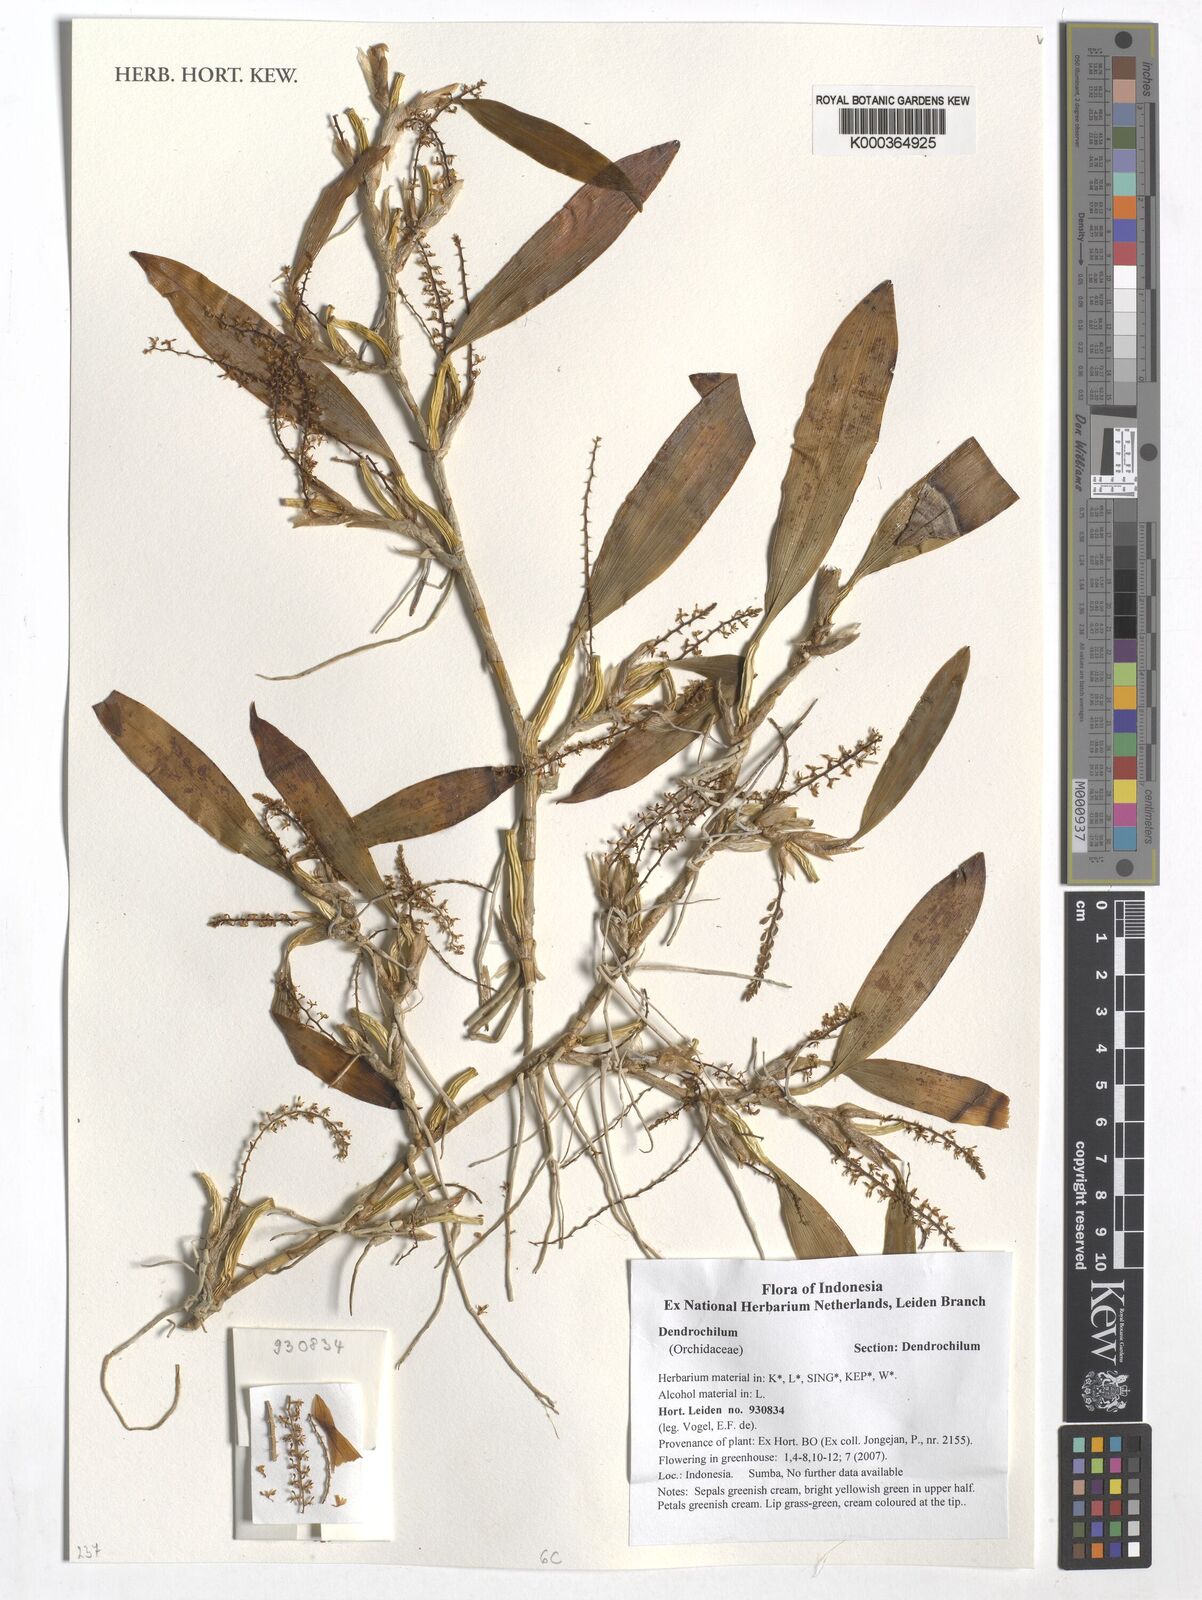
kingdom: Plantae
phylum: Tracheophyta
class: Liliopsida
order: Asparagales
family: Orchidaceae
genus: Coelogyne
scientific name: Coelogyne
